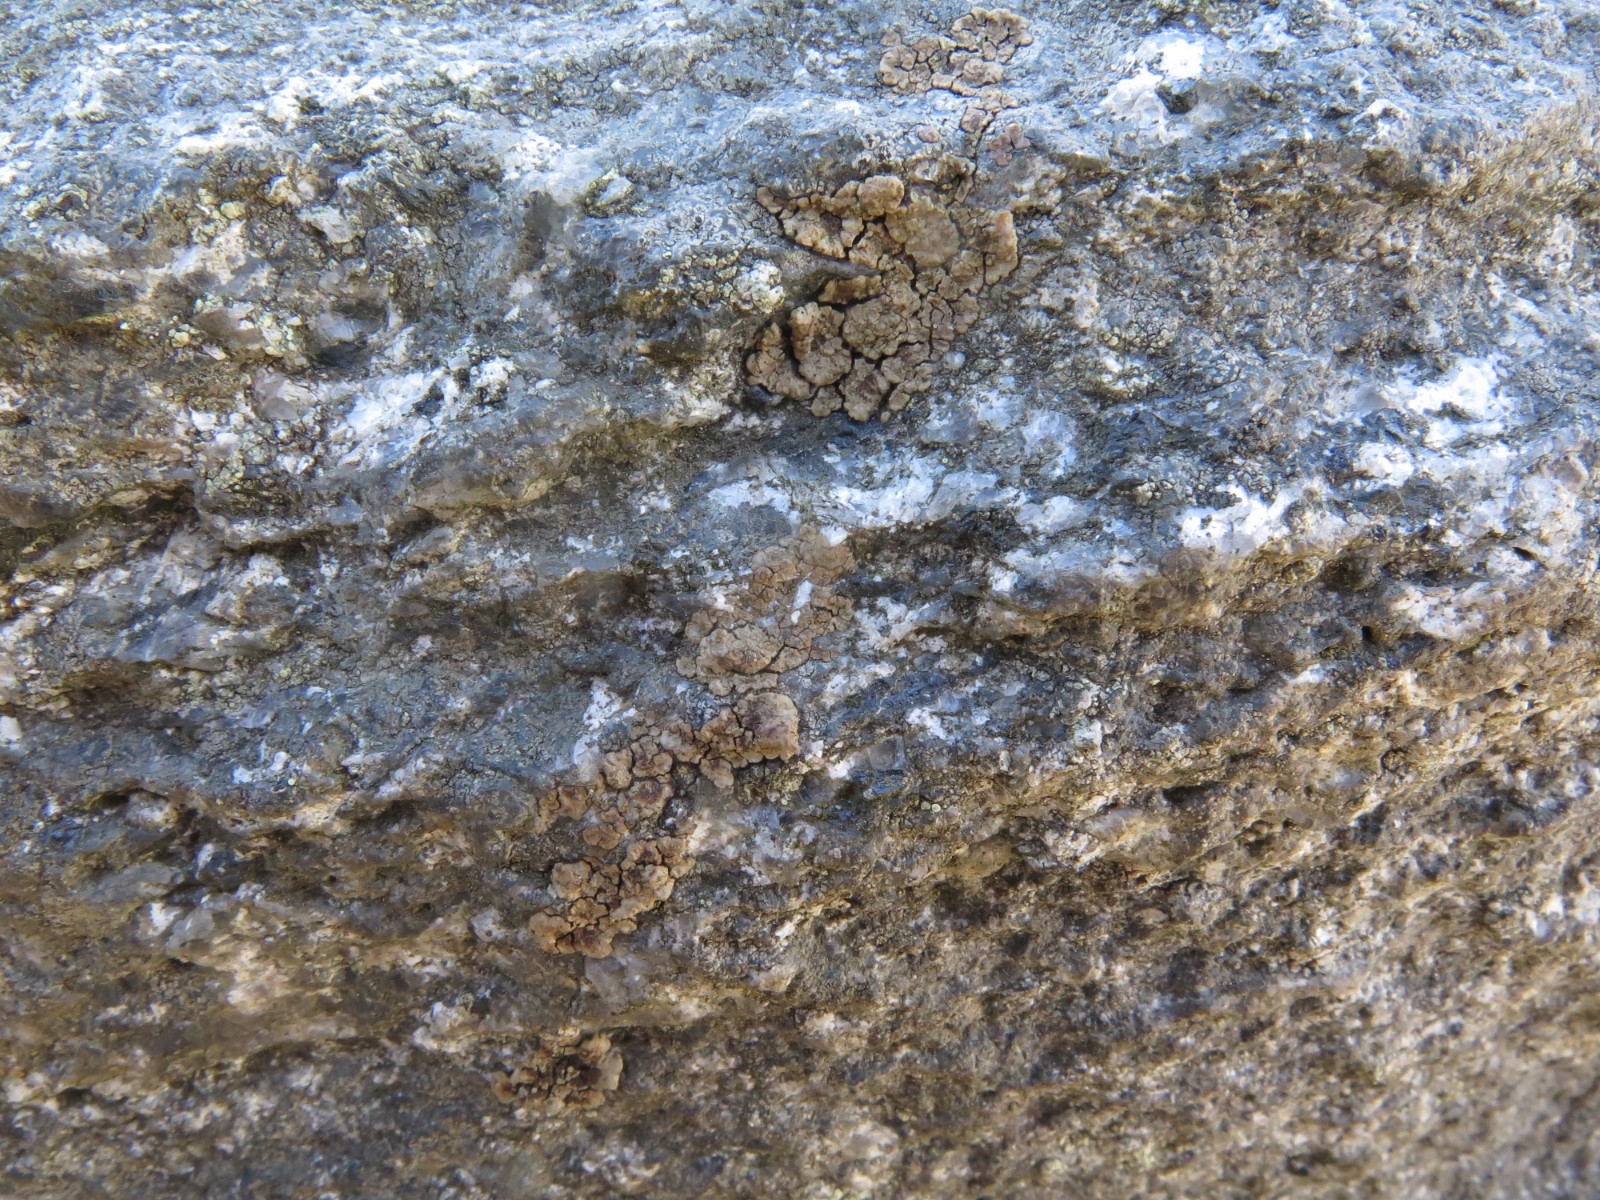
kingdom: Fungi
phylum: Ascomycota
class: Lecanoromycetes
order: Acarosporales
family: Acarosporaceae
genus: Acarospora
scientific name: Acarospora fuscata
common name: brun småsporelav
